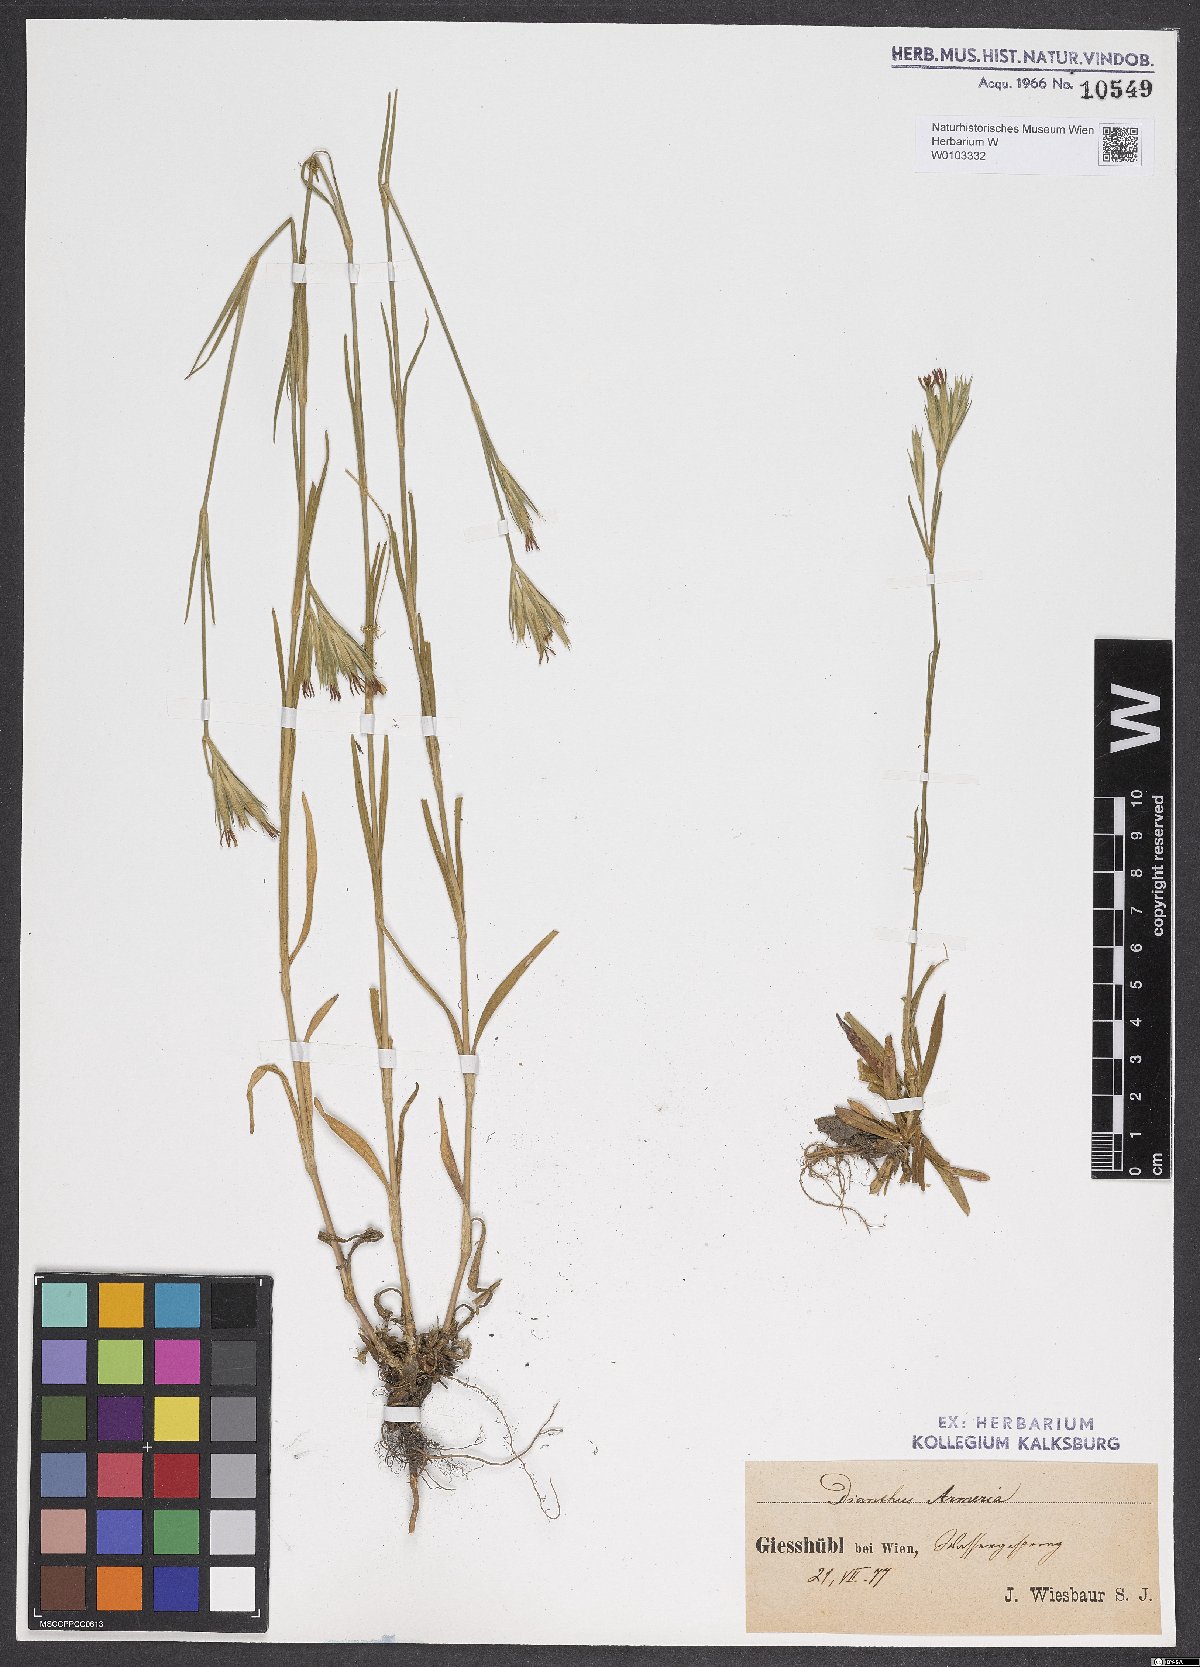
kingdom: Plantae
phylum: Tracheophyta
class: Magnoliopsida
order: Caryophyllales
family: Caryophyllaceae
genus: Dianthus
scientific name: Dianthus armeria
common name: Deptford pink
